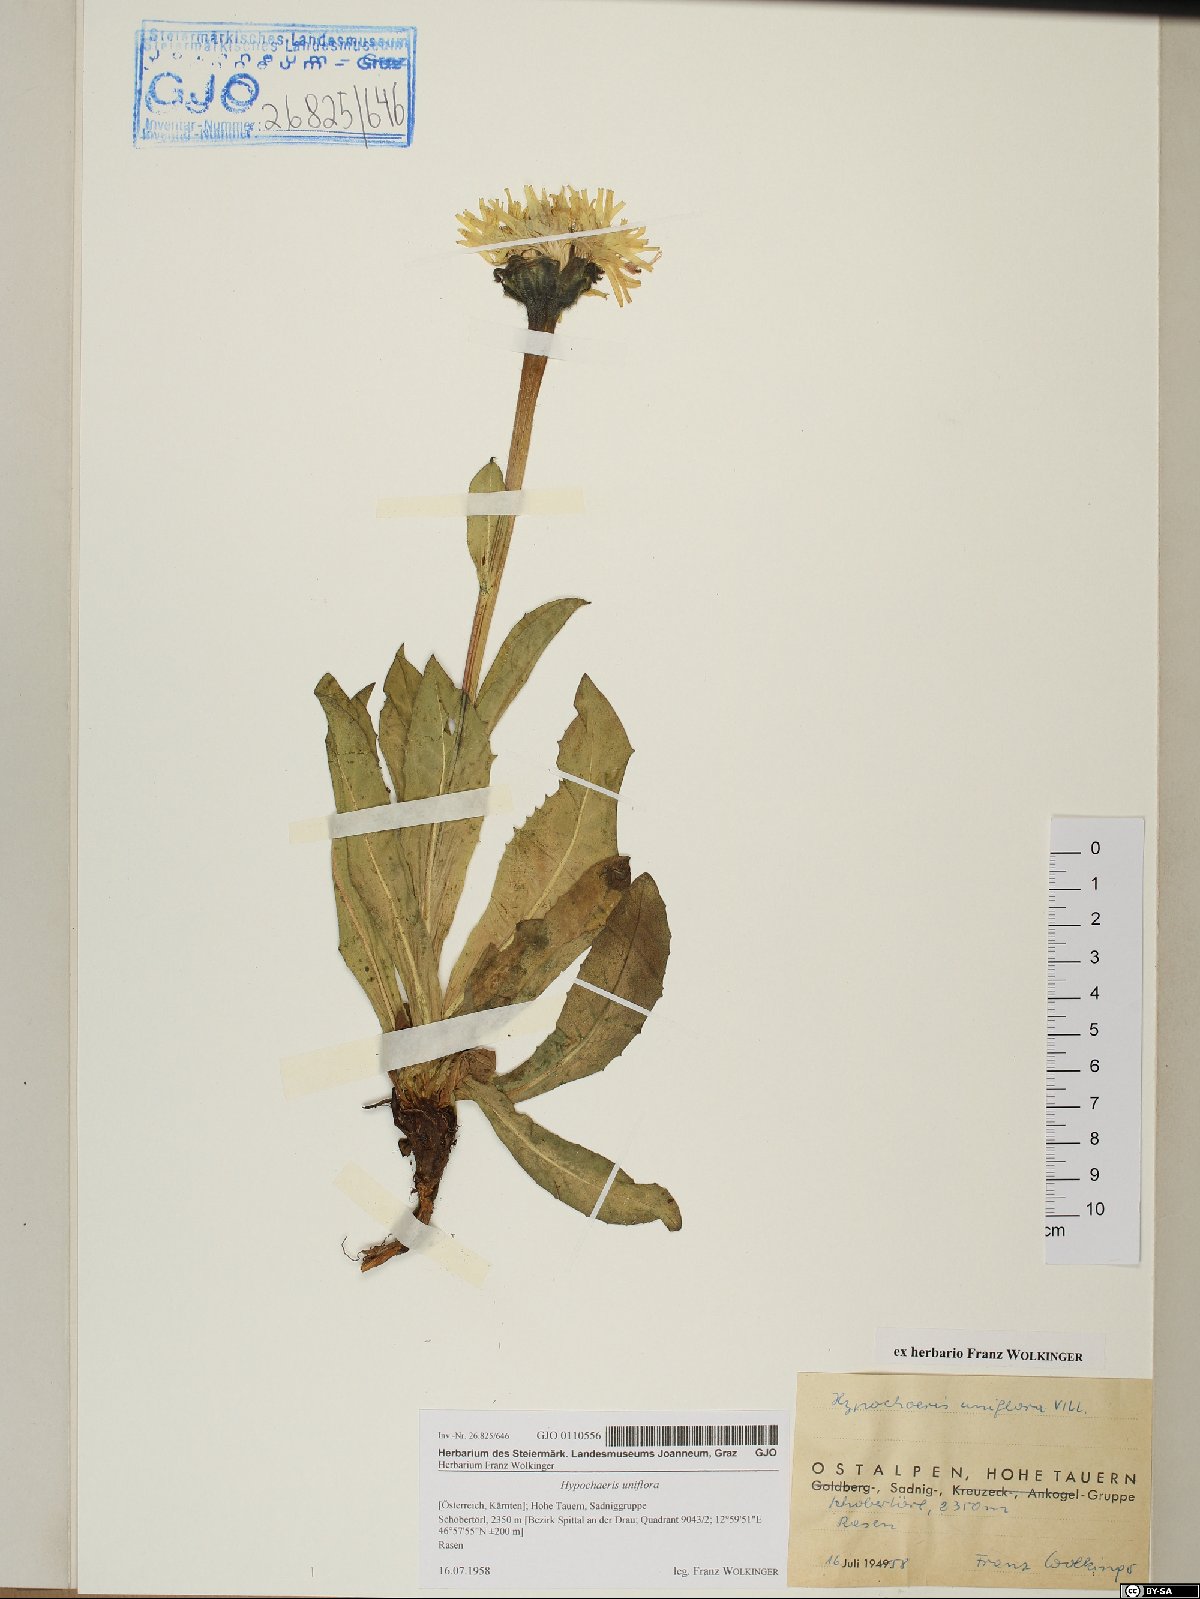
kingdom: Plantae
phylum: Tracheophyta
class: Magnoliopsida
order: Asterales
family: Asteraceae
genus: Trommsdorffia
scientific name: Trommsdorffia uniflora
